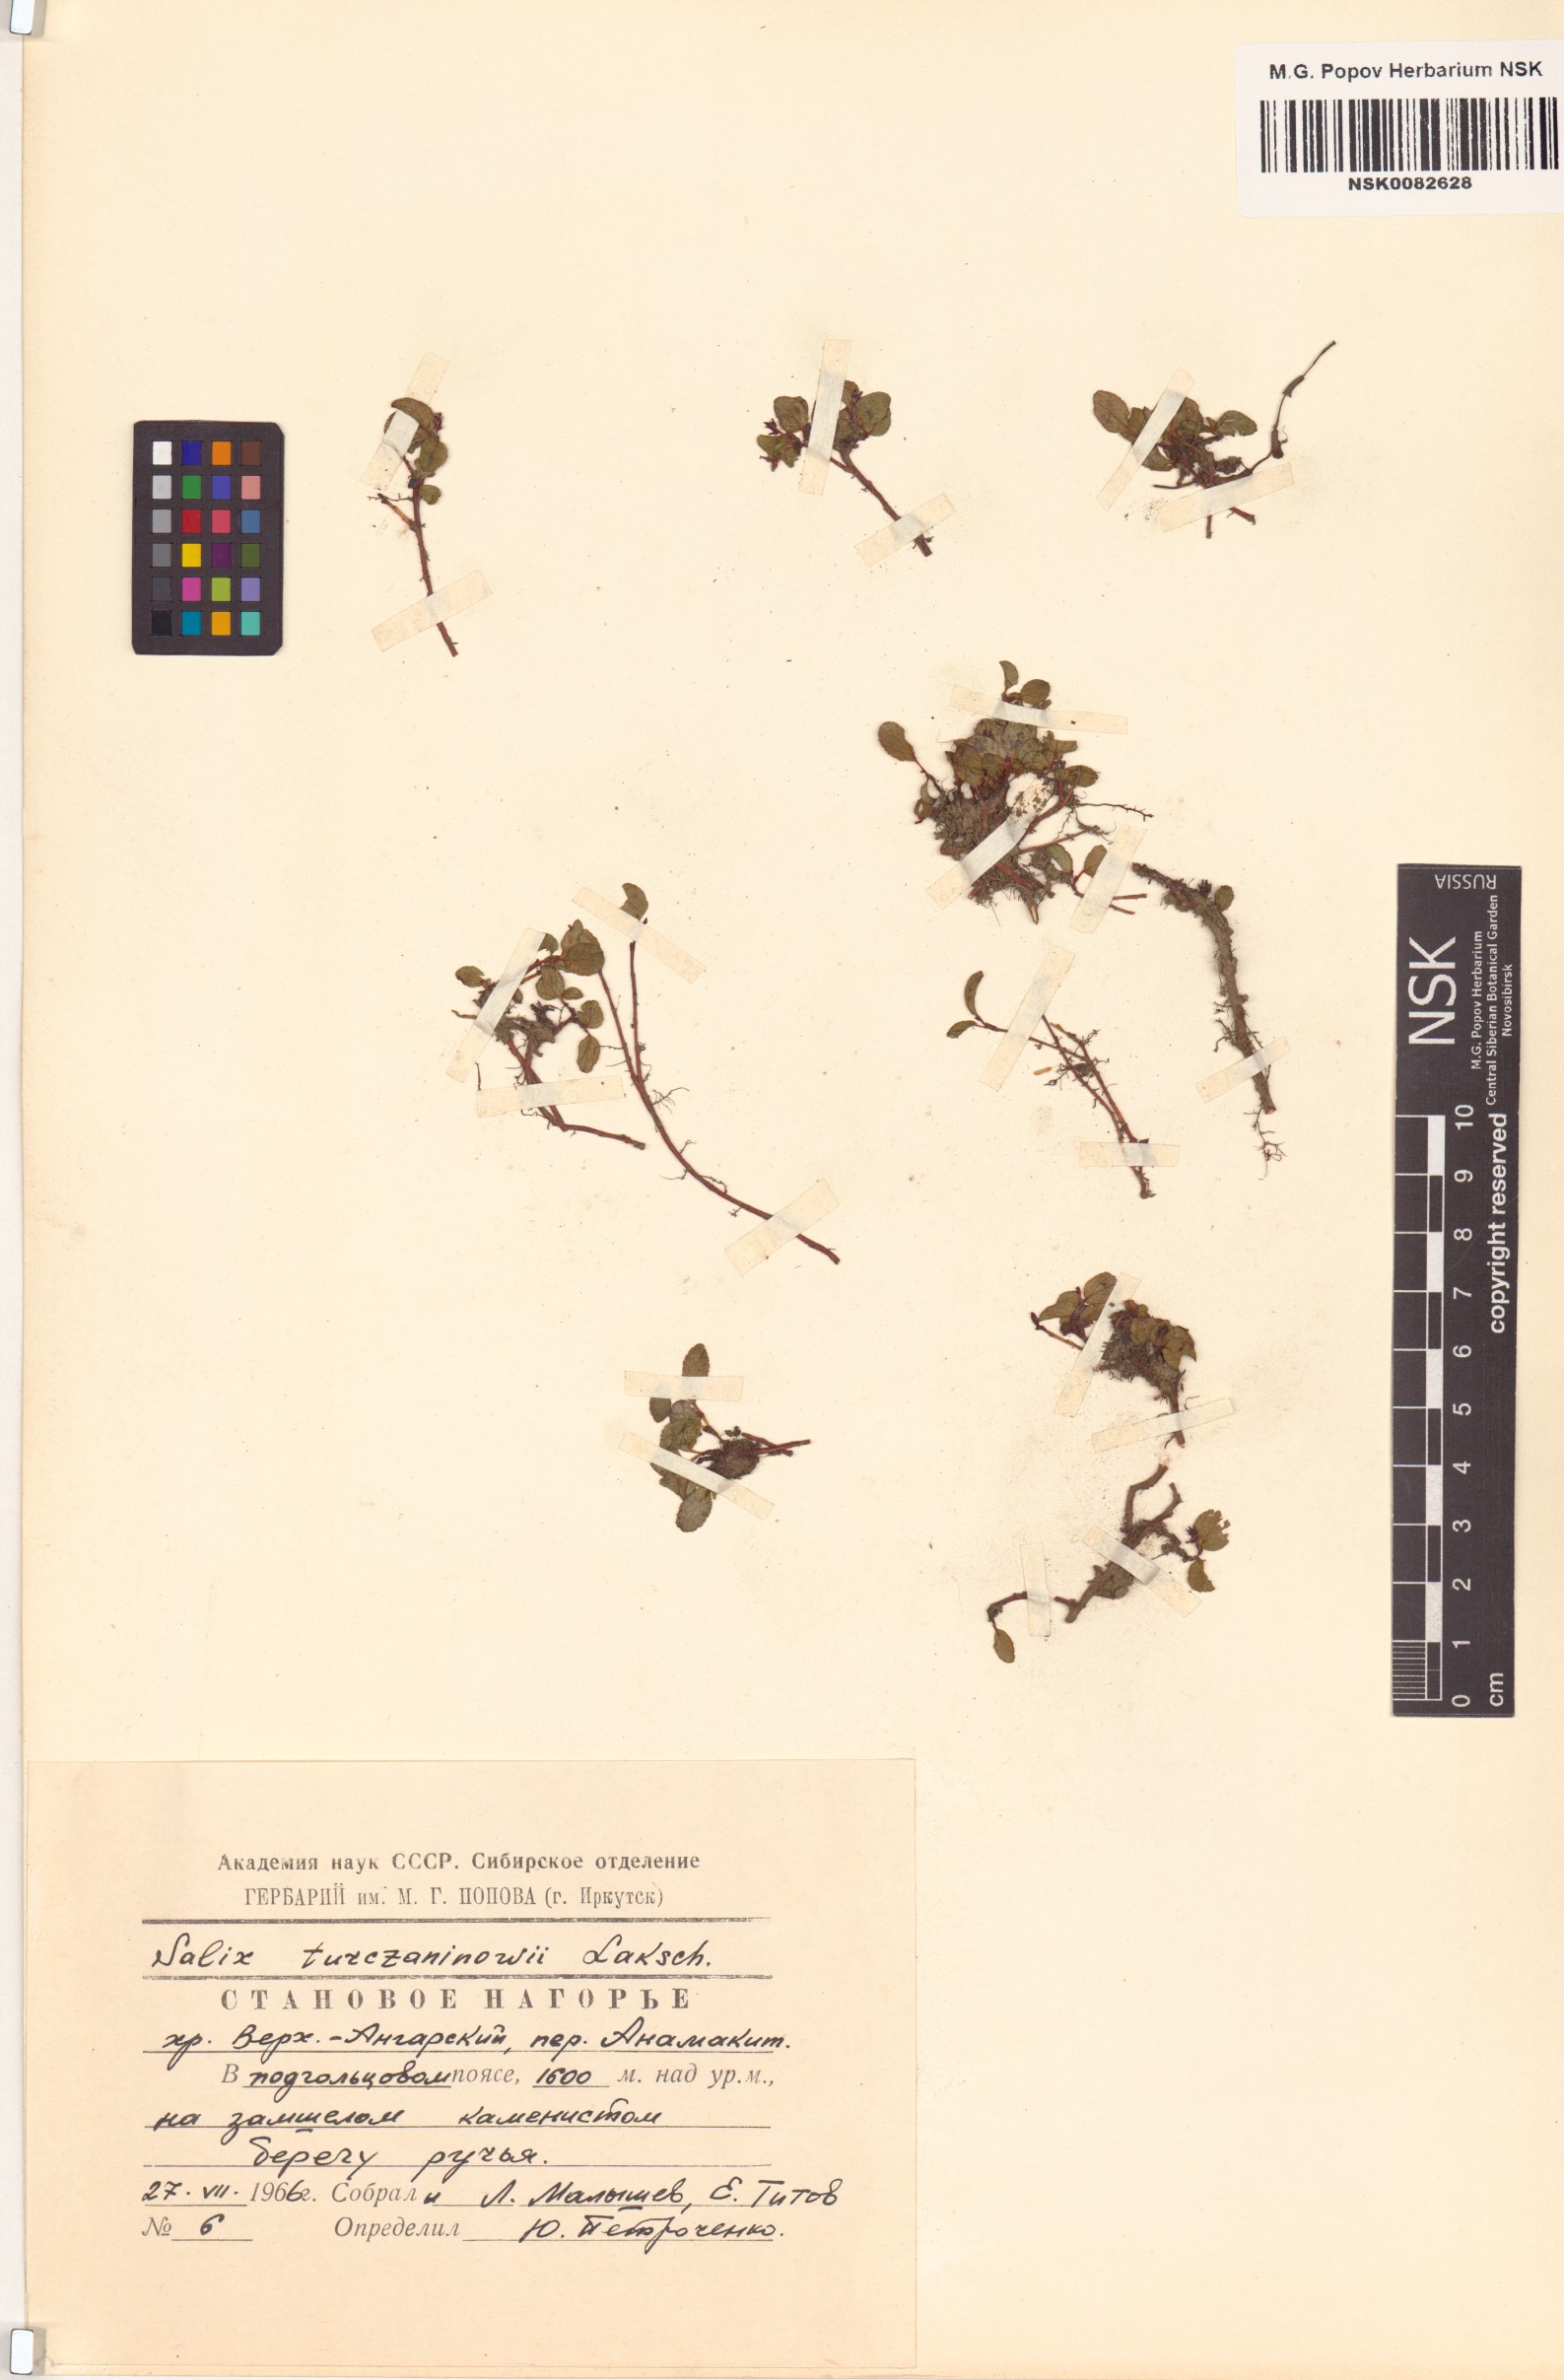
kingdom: Plantae
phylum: Tracheophyta
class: Magnoliopsida
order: Malpighiales
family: Salicaceae
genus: Salix
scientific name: Salix turczaninowii
